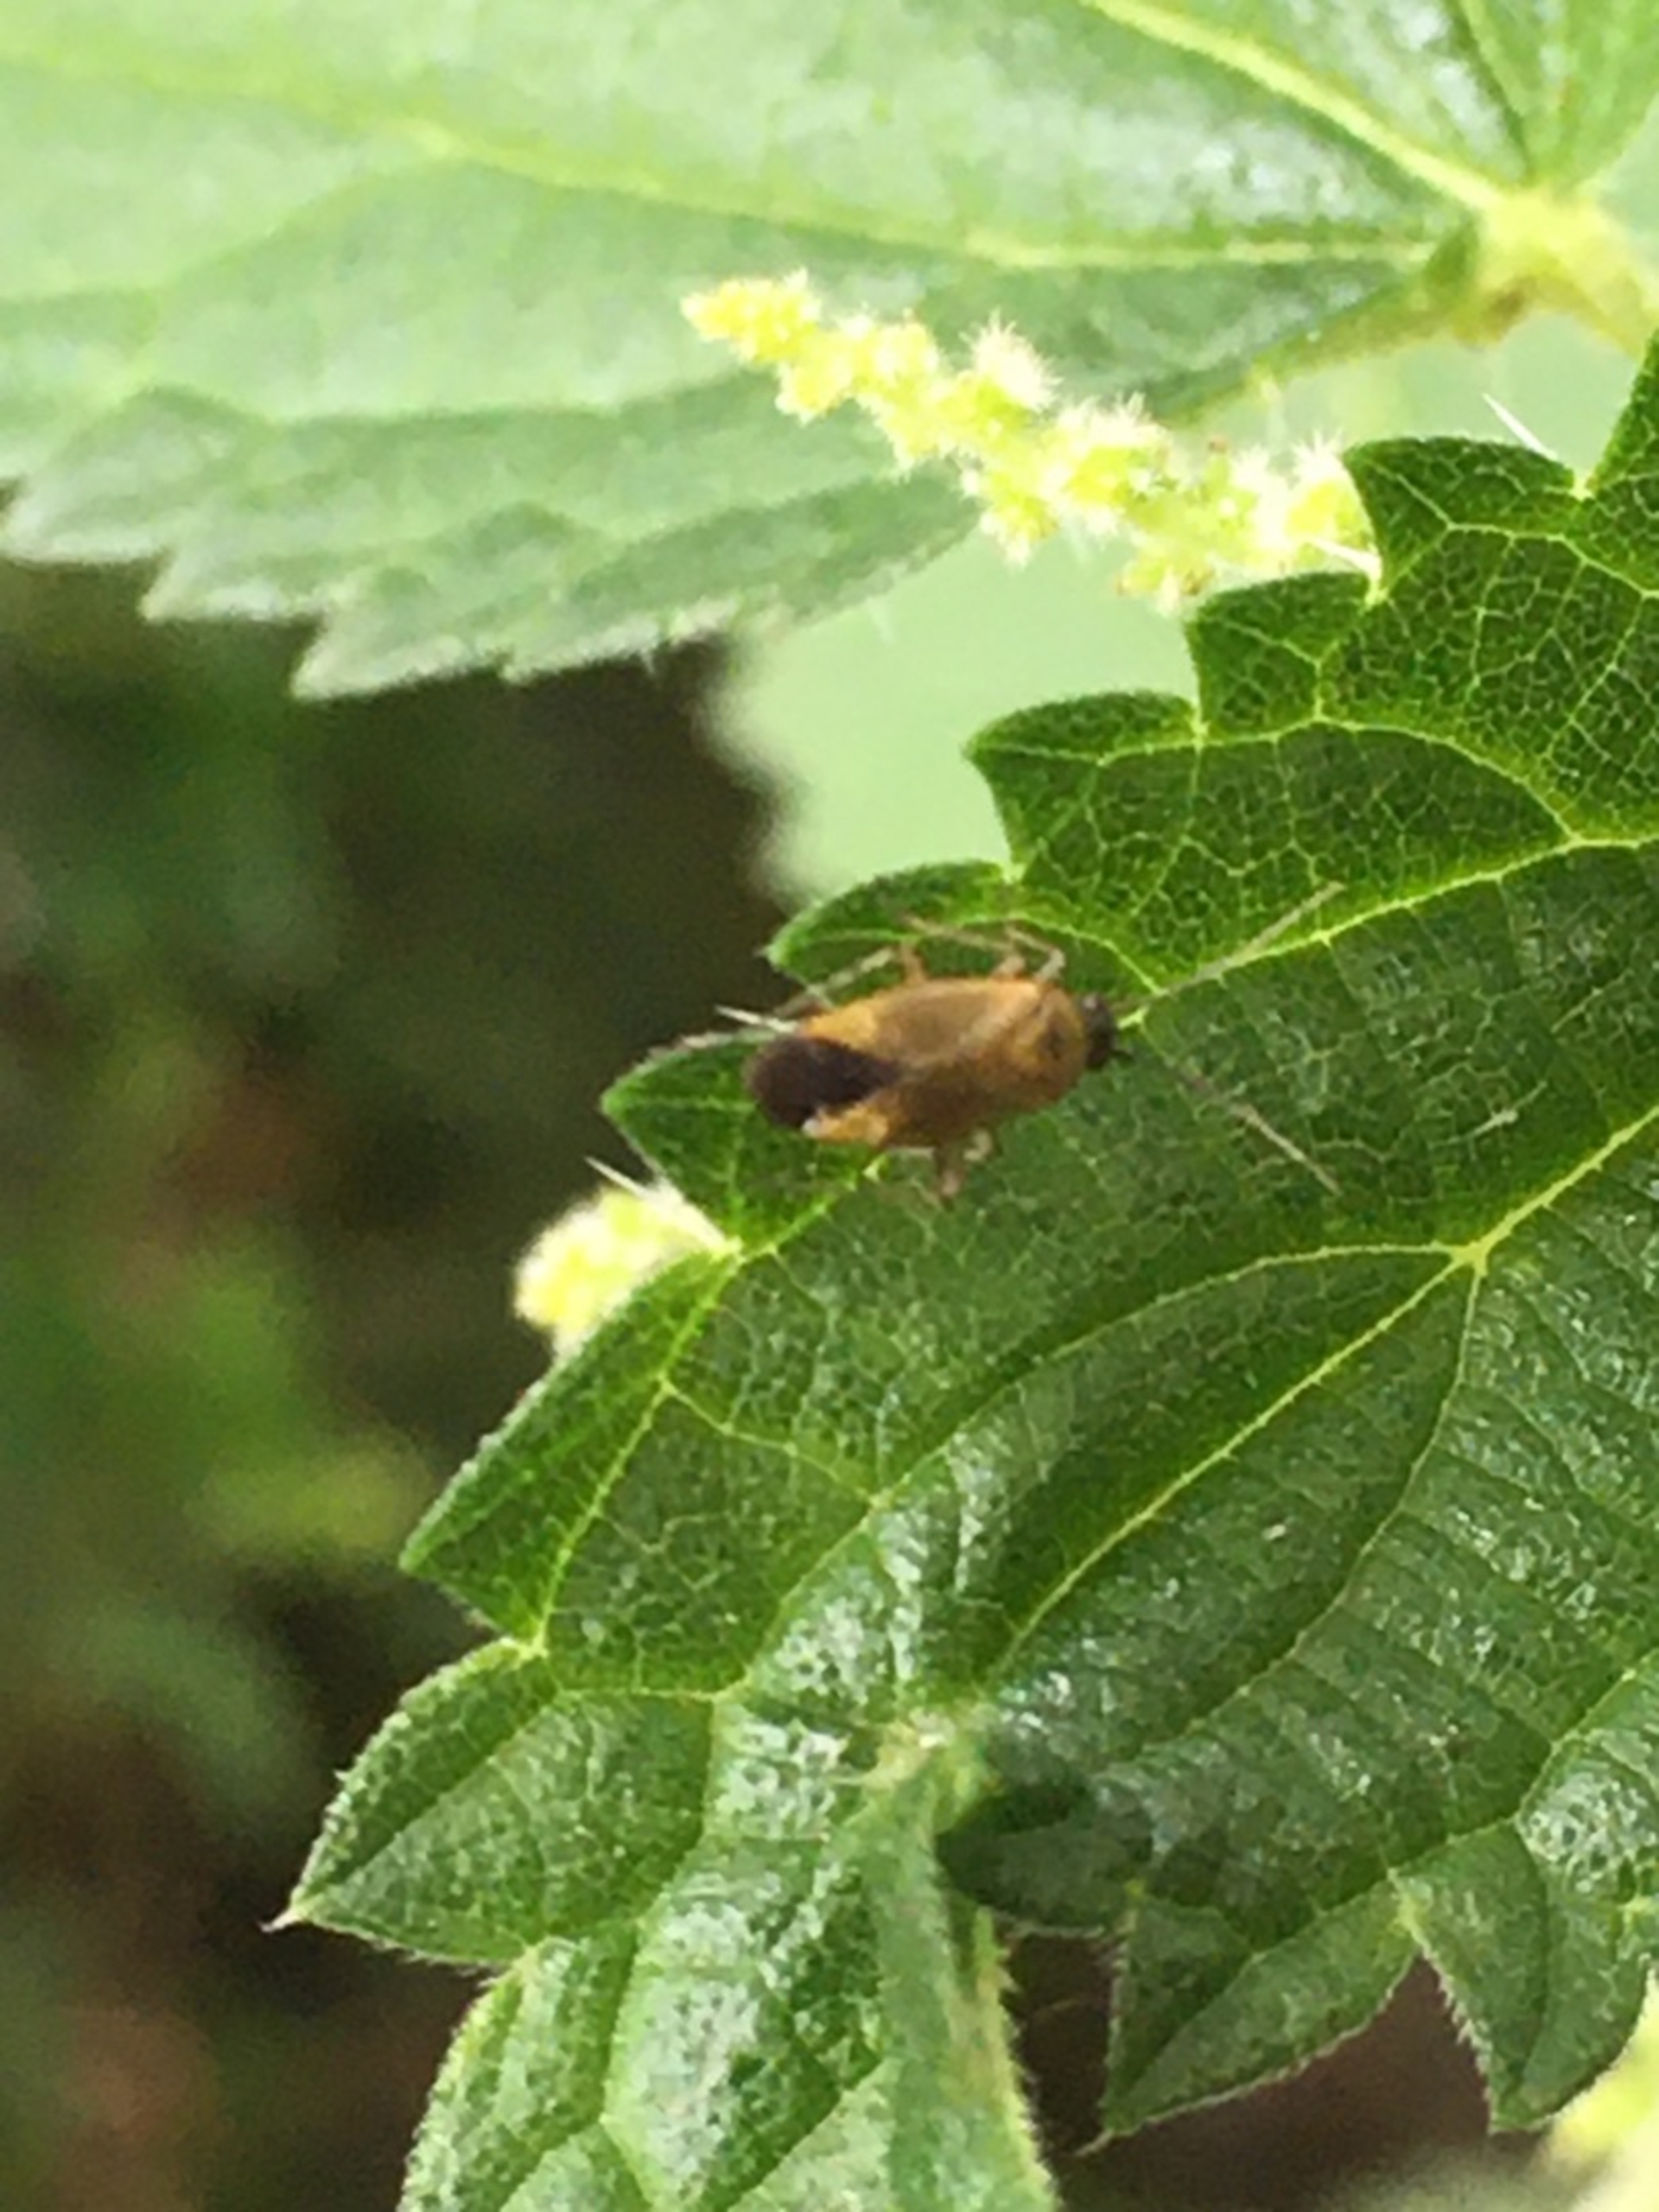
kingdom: Animalia
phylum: Arthropoda
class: Insecta
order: Hemiptera
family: Miridae
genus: Plagiognathus
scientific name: Plagiognathus arbustorum
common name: Almindelig nældeblomstertæge
